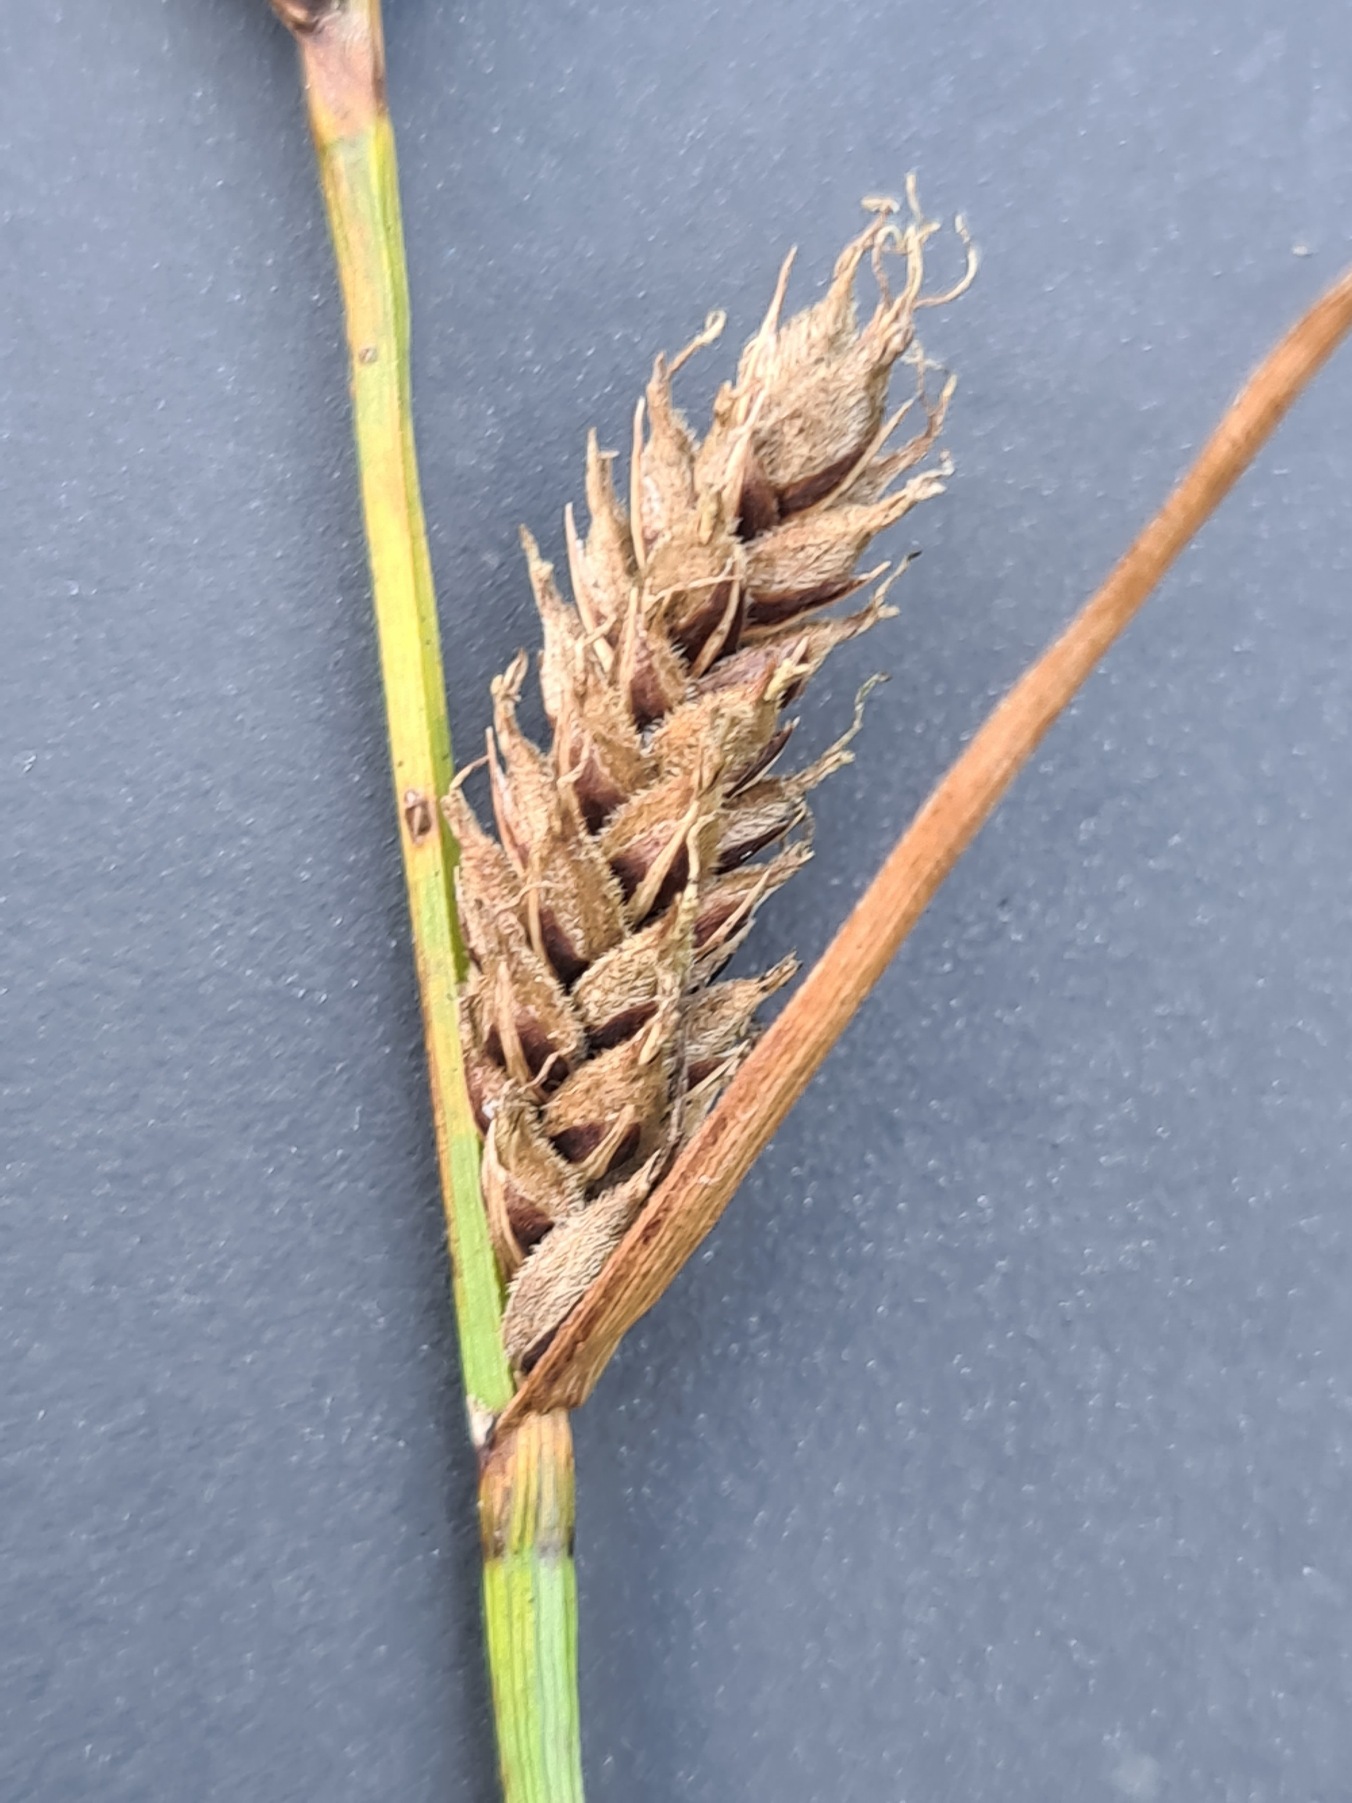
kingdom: Plantae
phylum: Tracheophyta
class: Liliopsida
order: Poales
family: Cyperaceae
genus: Carex
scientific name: Carex lasiocarpa
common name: Tråd-star
